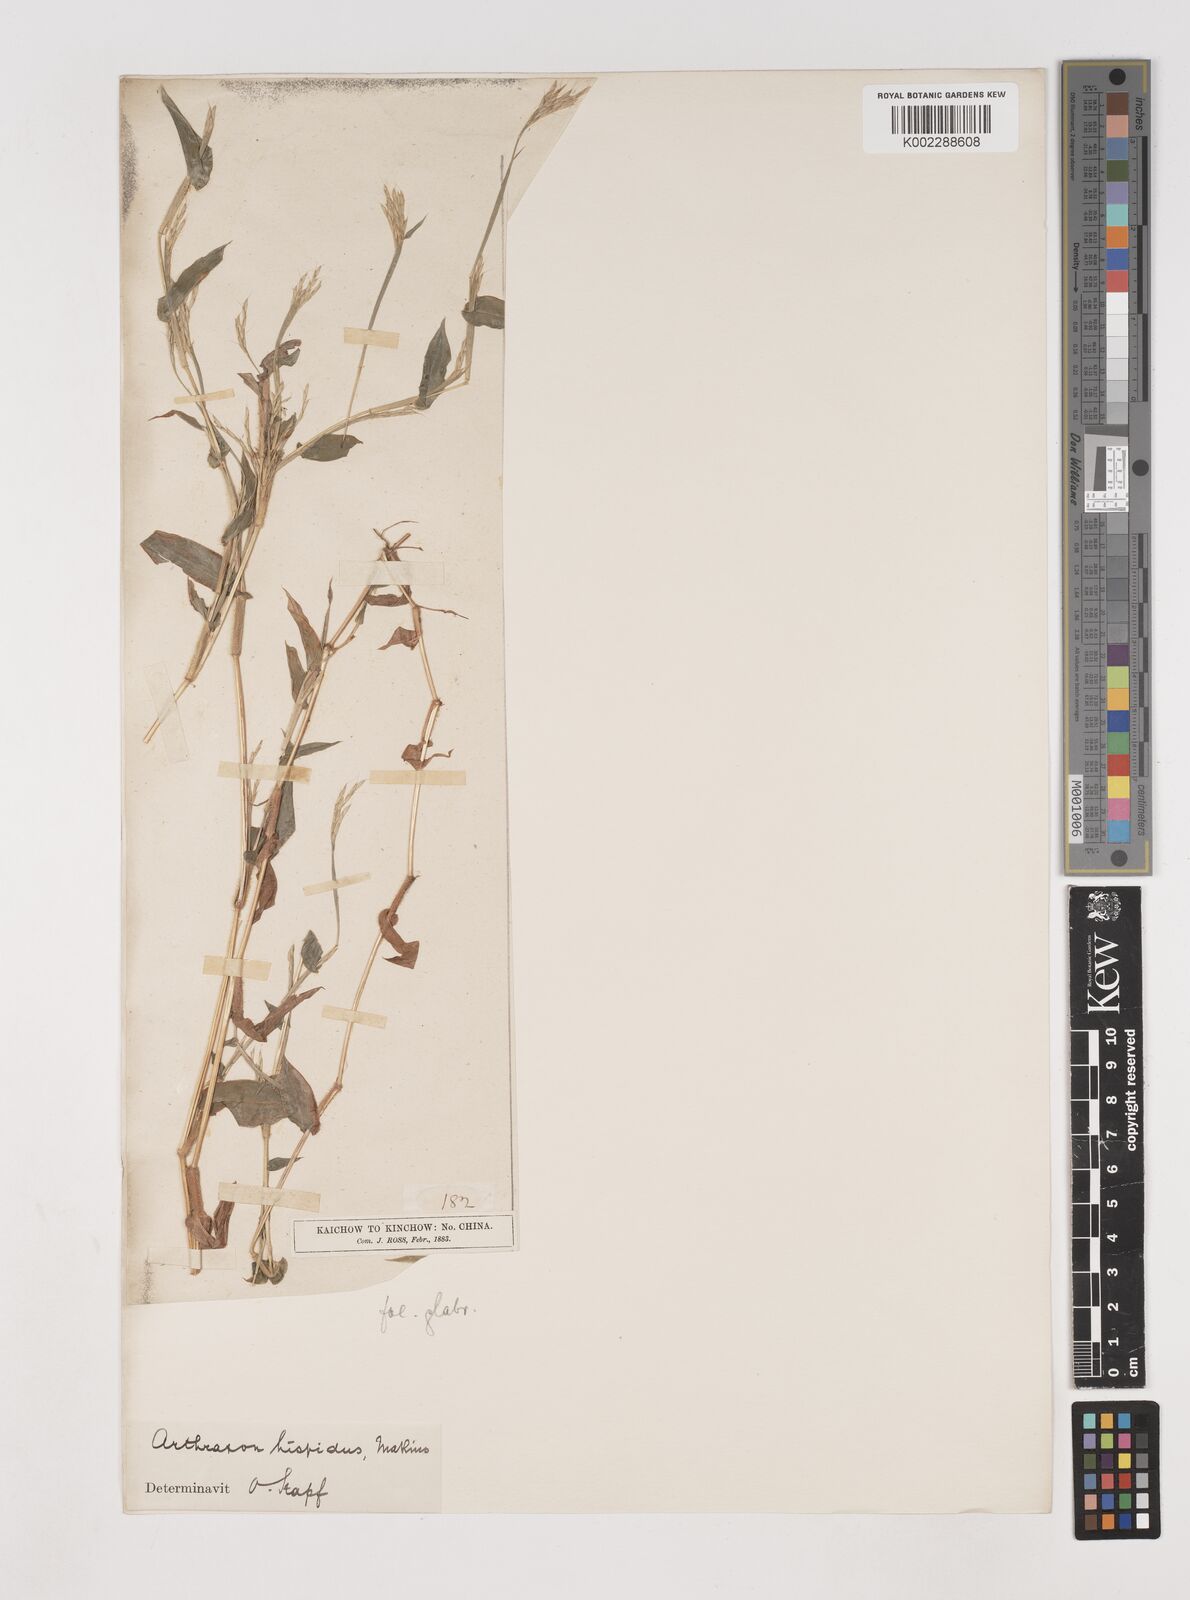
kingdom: Plantae
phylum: Tracheophyta
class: Liliopsida
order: Poales
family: Poaceae
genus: Arthraxon
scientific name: Arthraxon hispidus
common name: Small carpgrass
